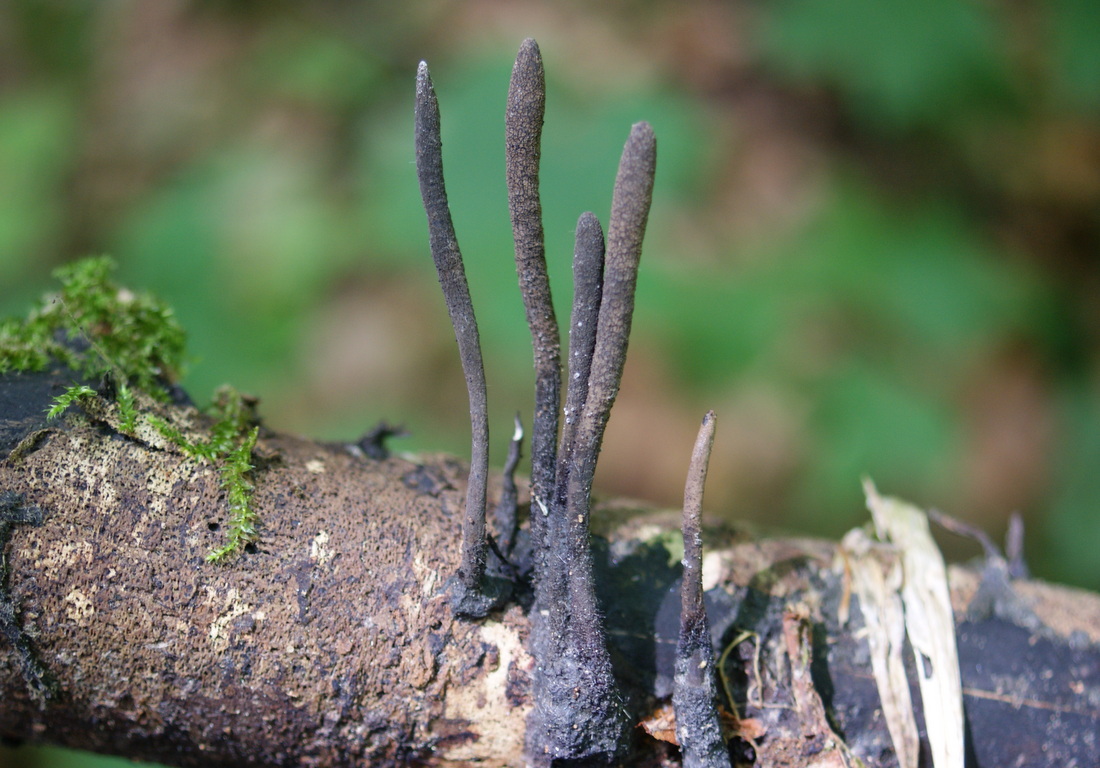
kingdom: Fungi
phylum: Ascomycota
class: Sordariomycetes
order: Xylariales
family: Xylariaceae
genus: Xylaria
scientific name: Xylaria longipes
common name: slank stødsvamp
